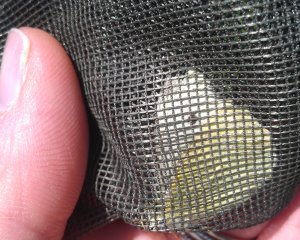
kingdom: Animalia
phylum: Arthropoda
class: Insecta
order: Lepidoptera
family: Pieridae
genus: Pieris
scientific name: Pieris rapae
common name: Cabbage White
